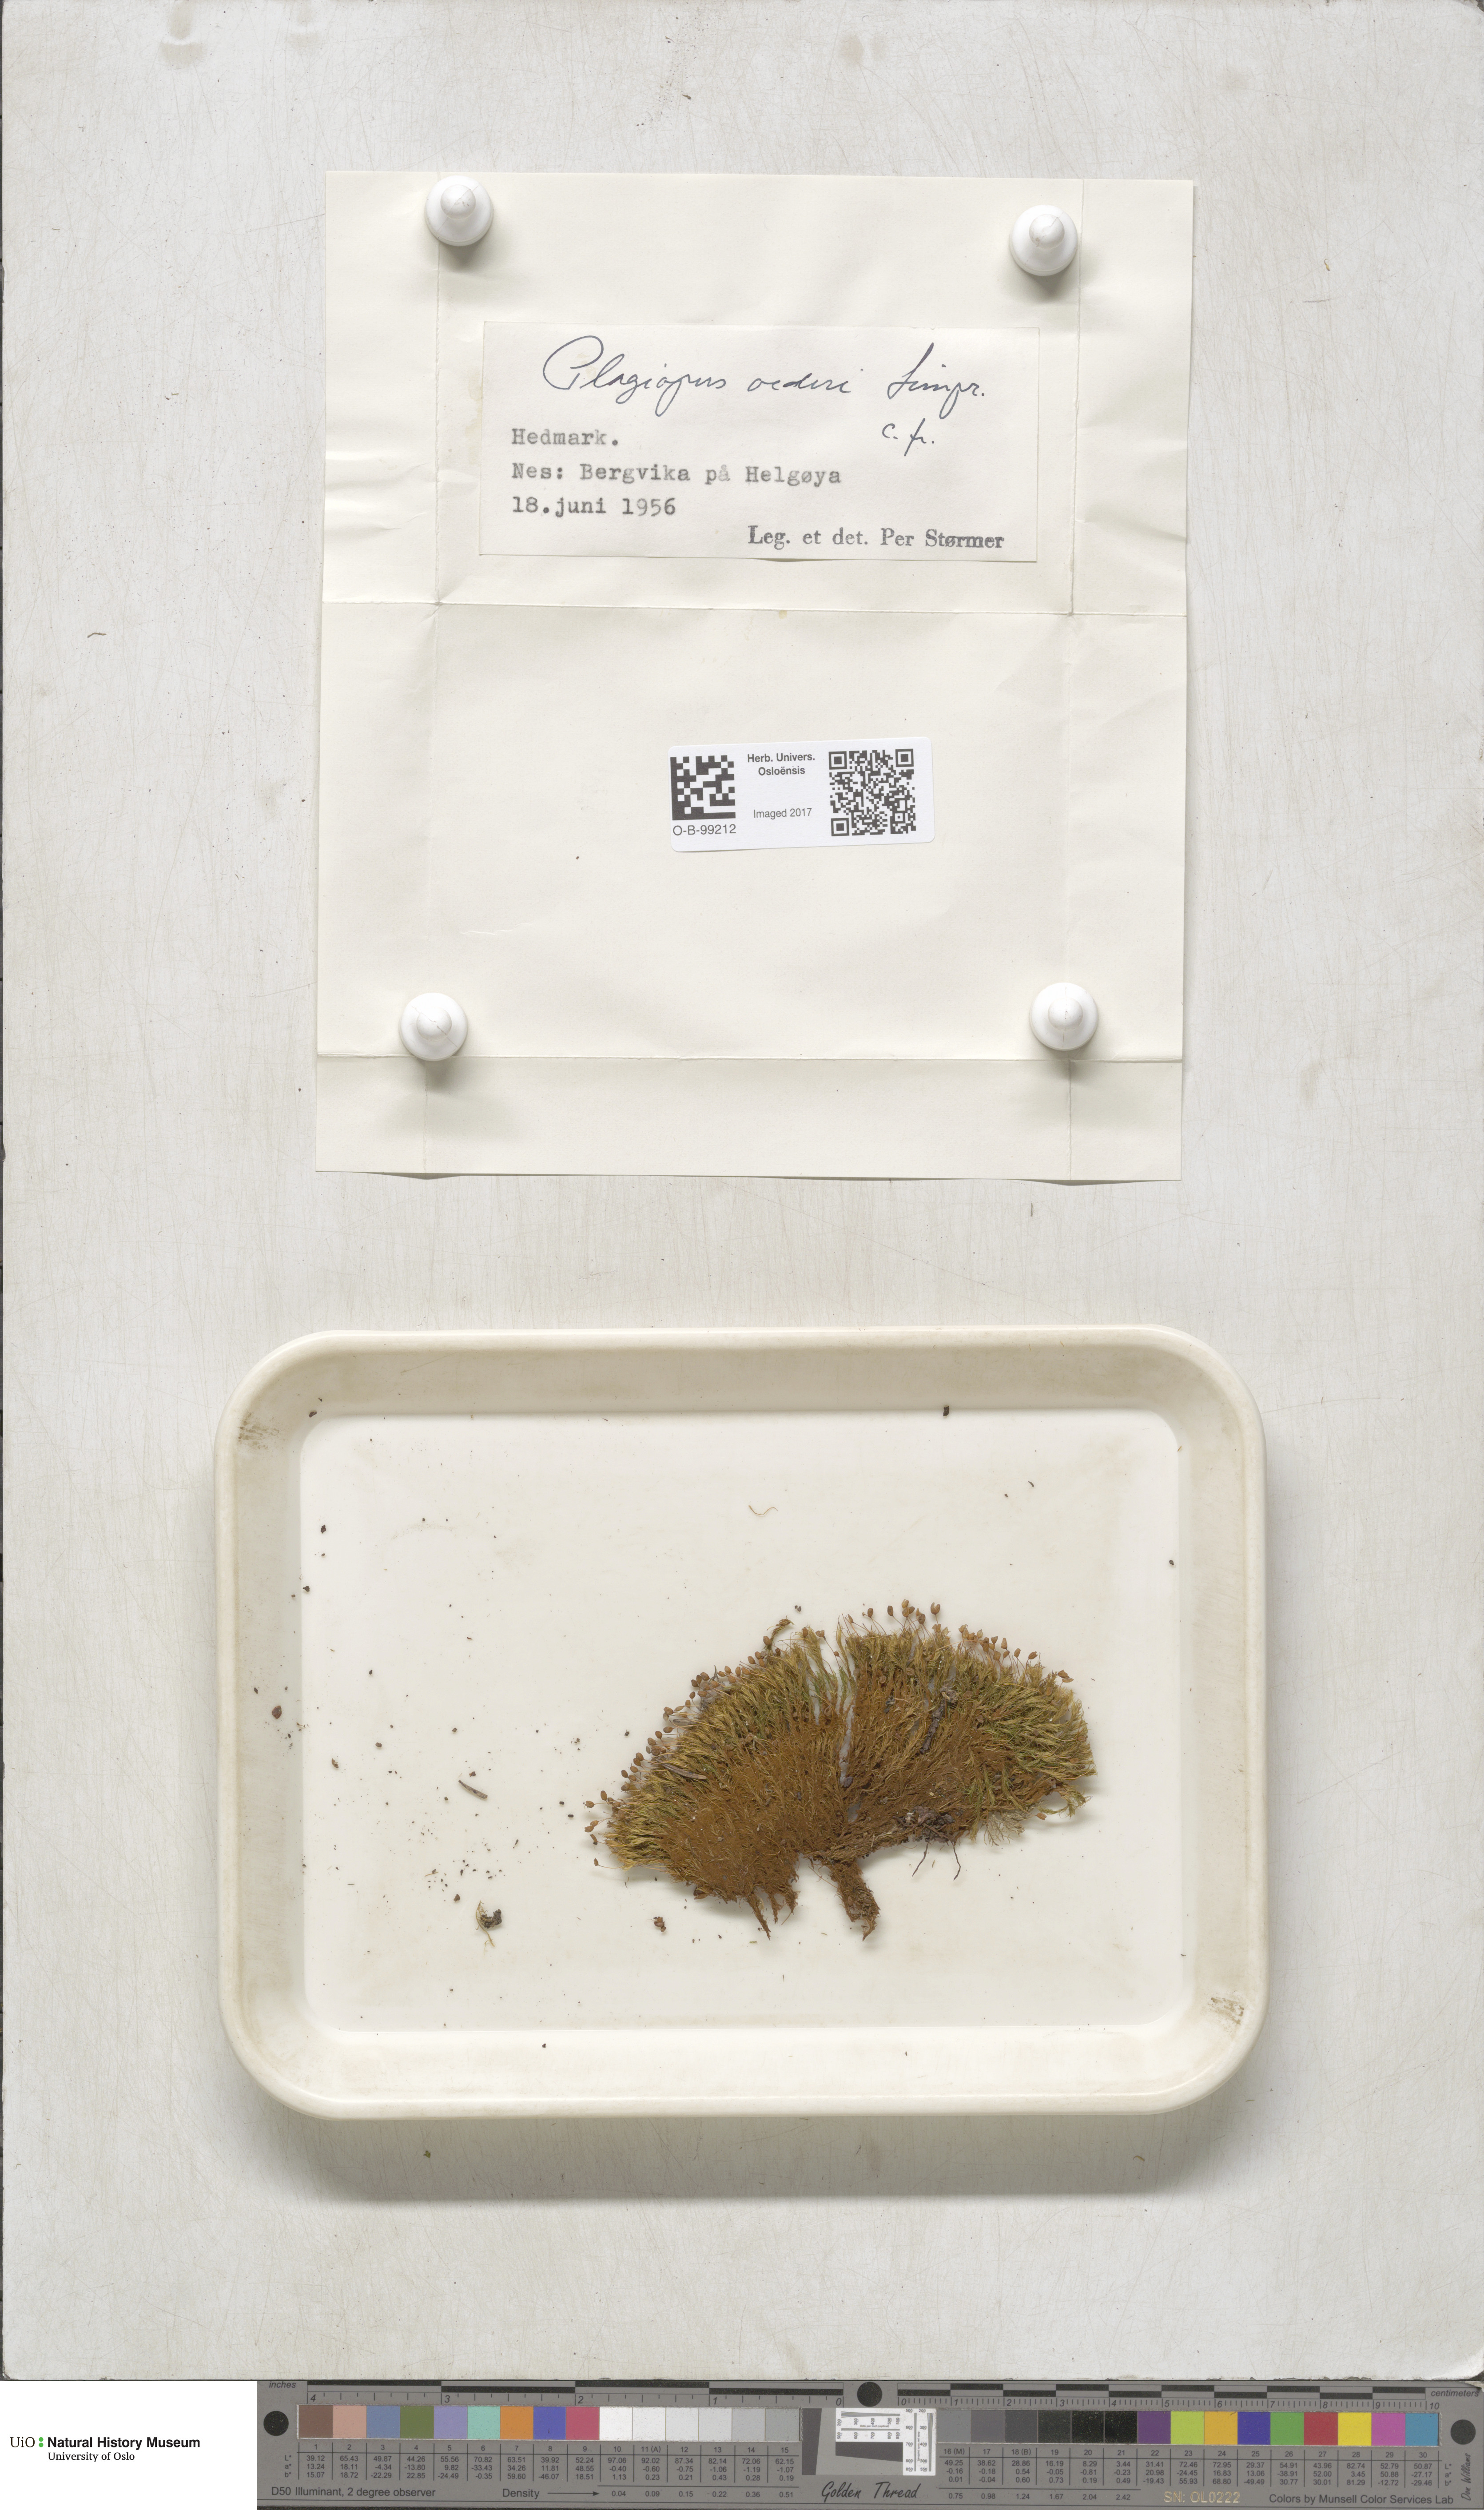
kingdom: Plantae
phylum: Bryophyta
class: Bryopsida
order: Bartramiales
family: Bartramiaceae
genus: Plagiopus
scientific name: Plagiopus oederianus
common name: Oeder's apple moss
